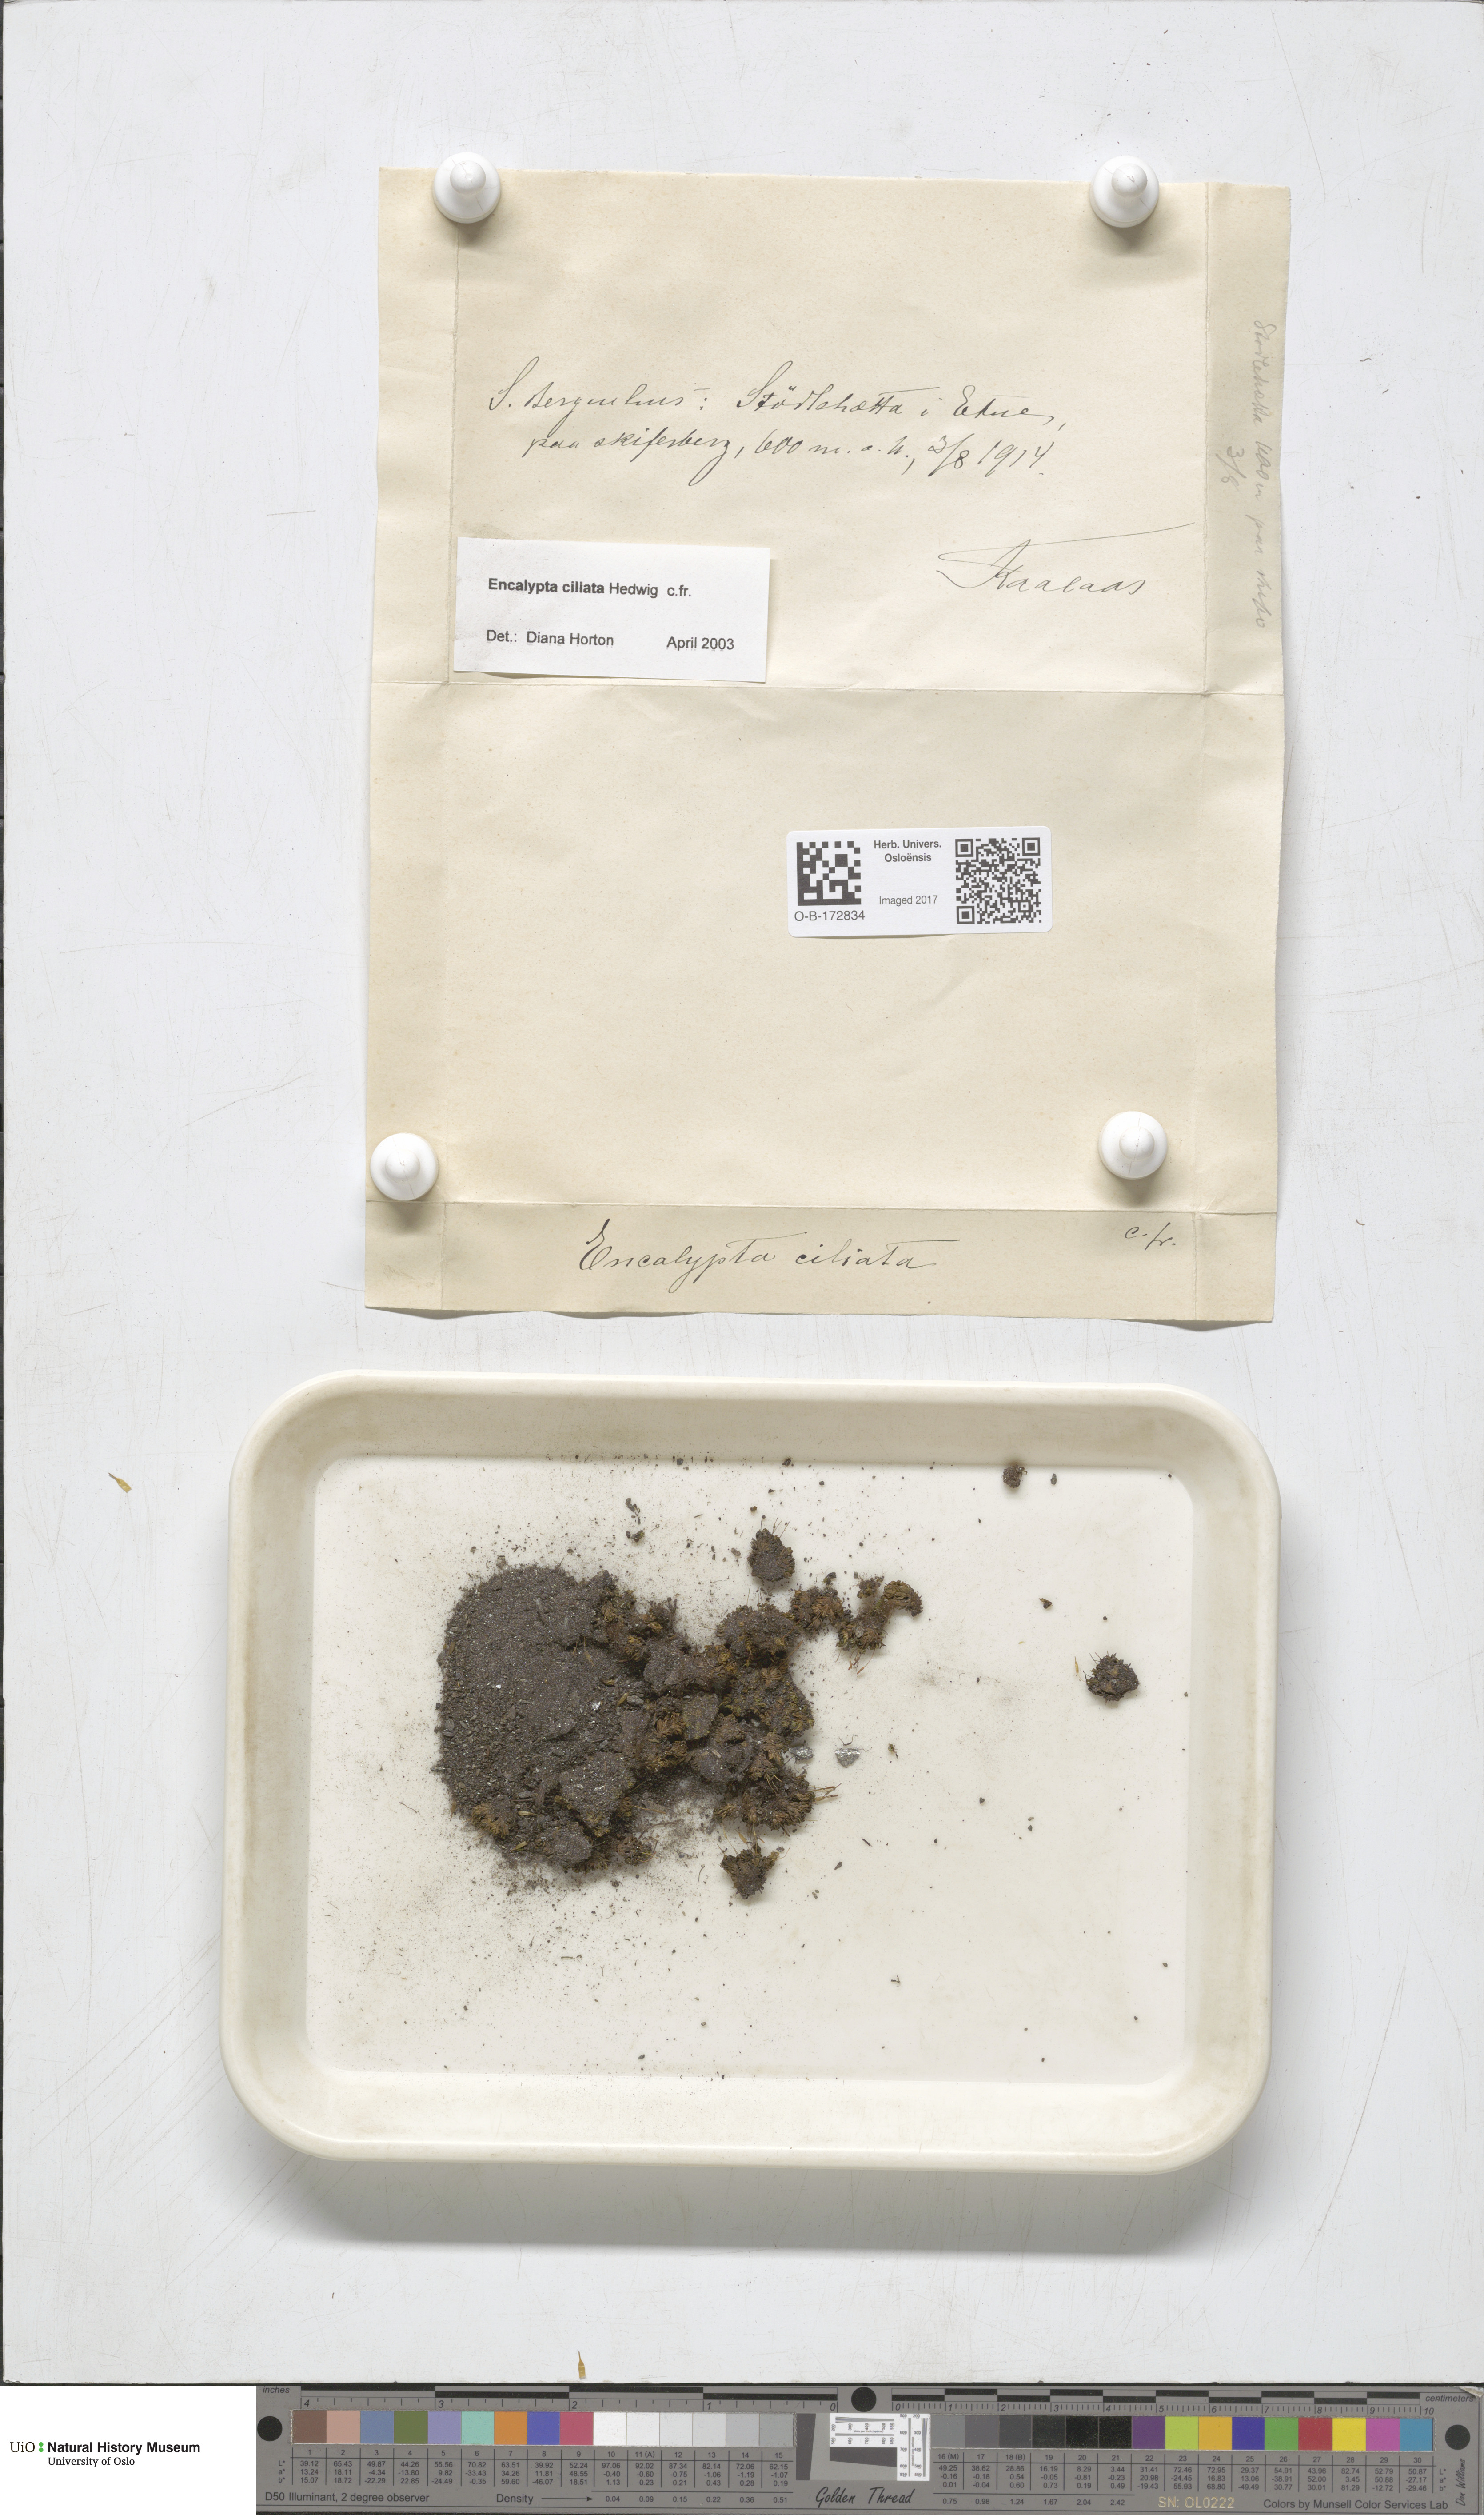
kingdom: Plantae
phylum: Bryophyta
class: Bryopsida
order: Encalyptales
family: Encalyptaceae
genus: Encalypta
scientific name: Encalypta ciliata
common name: Fringed extinguisher-moss
